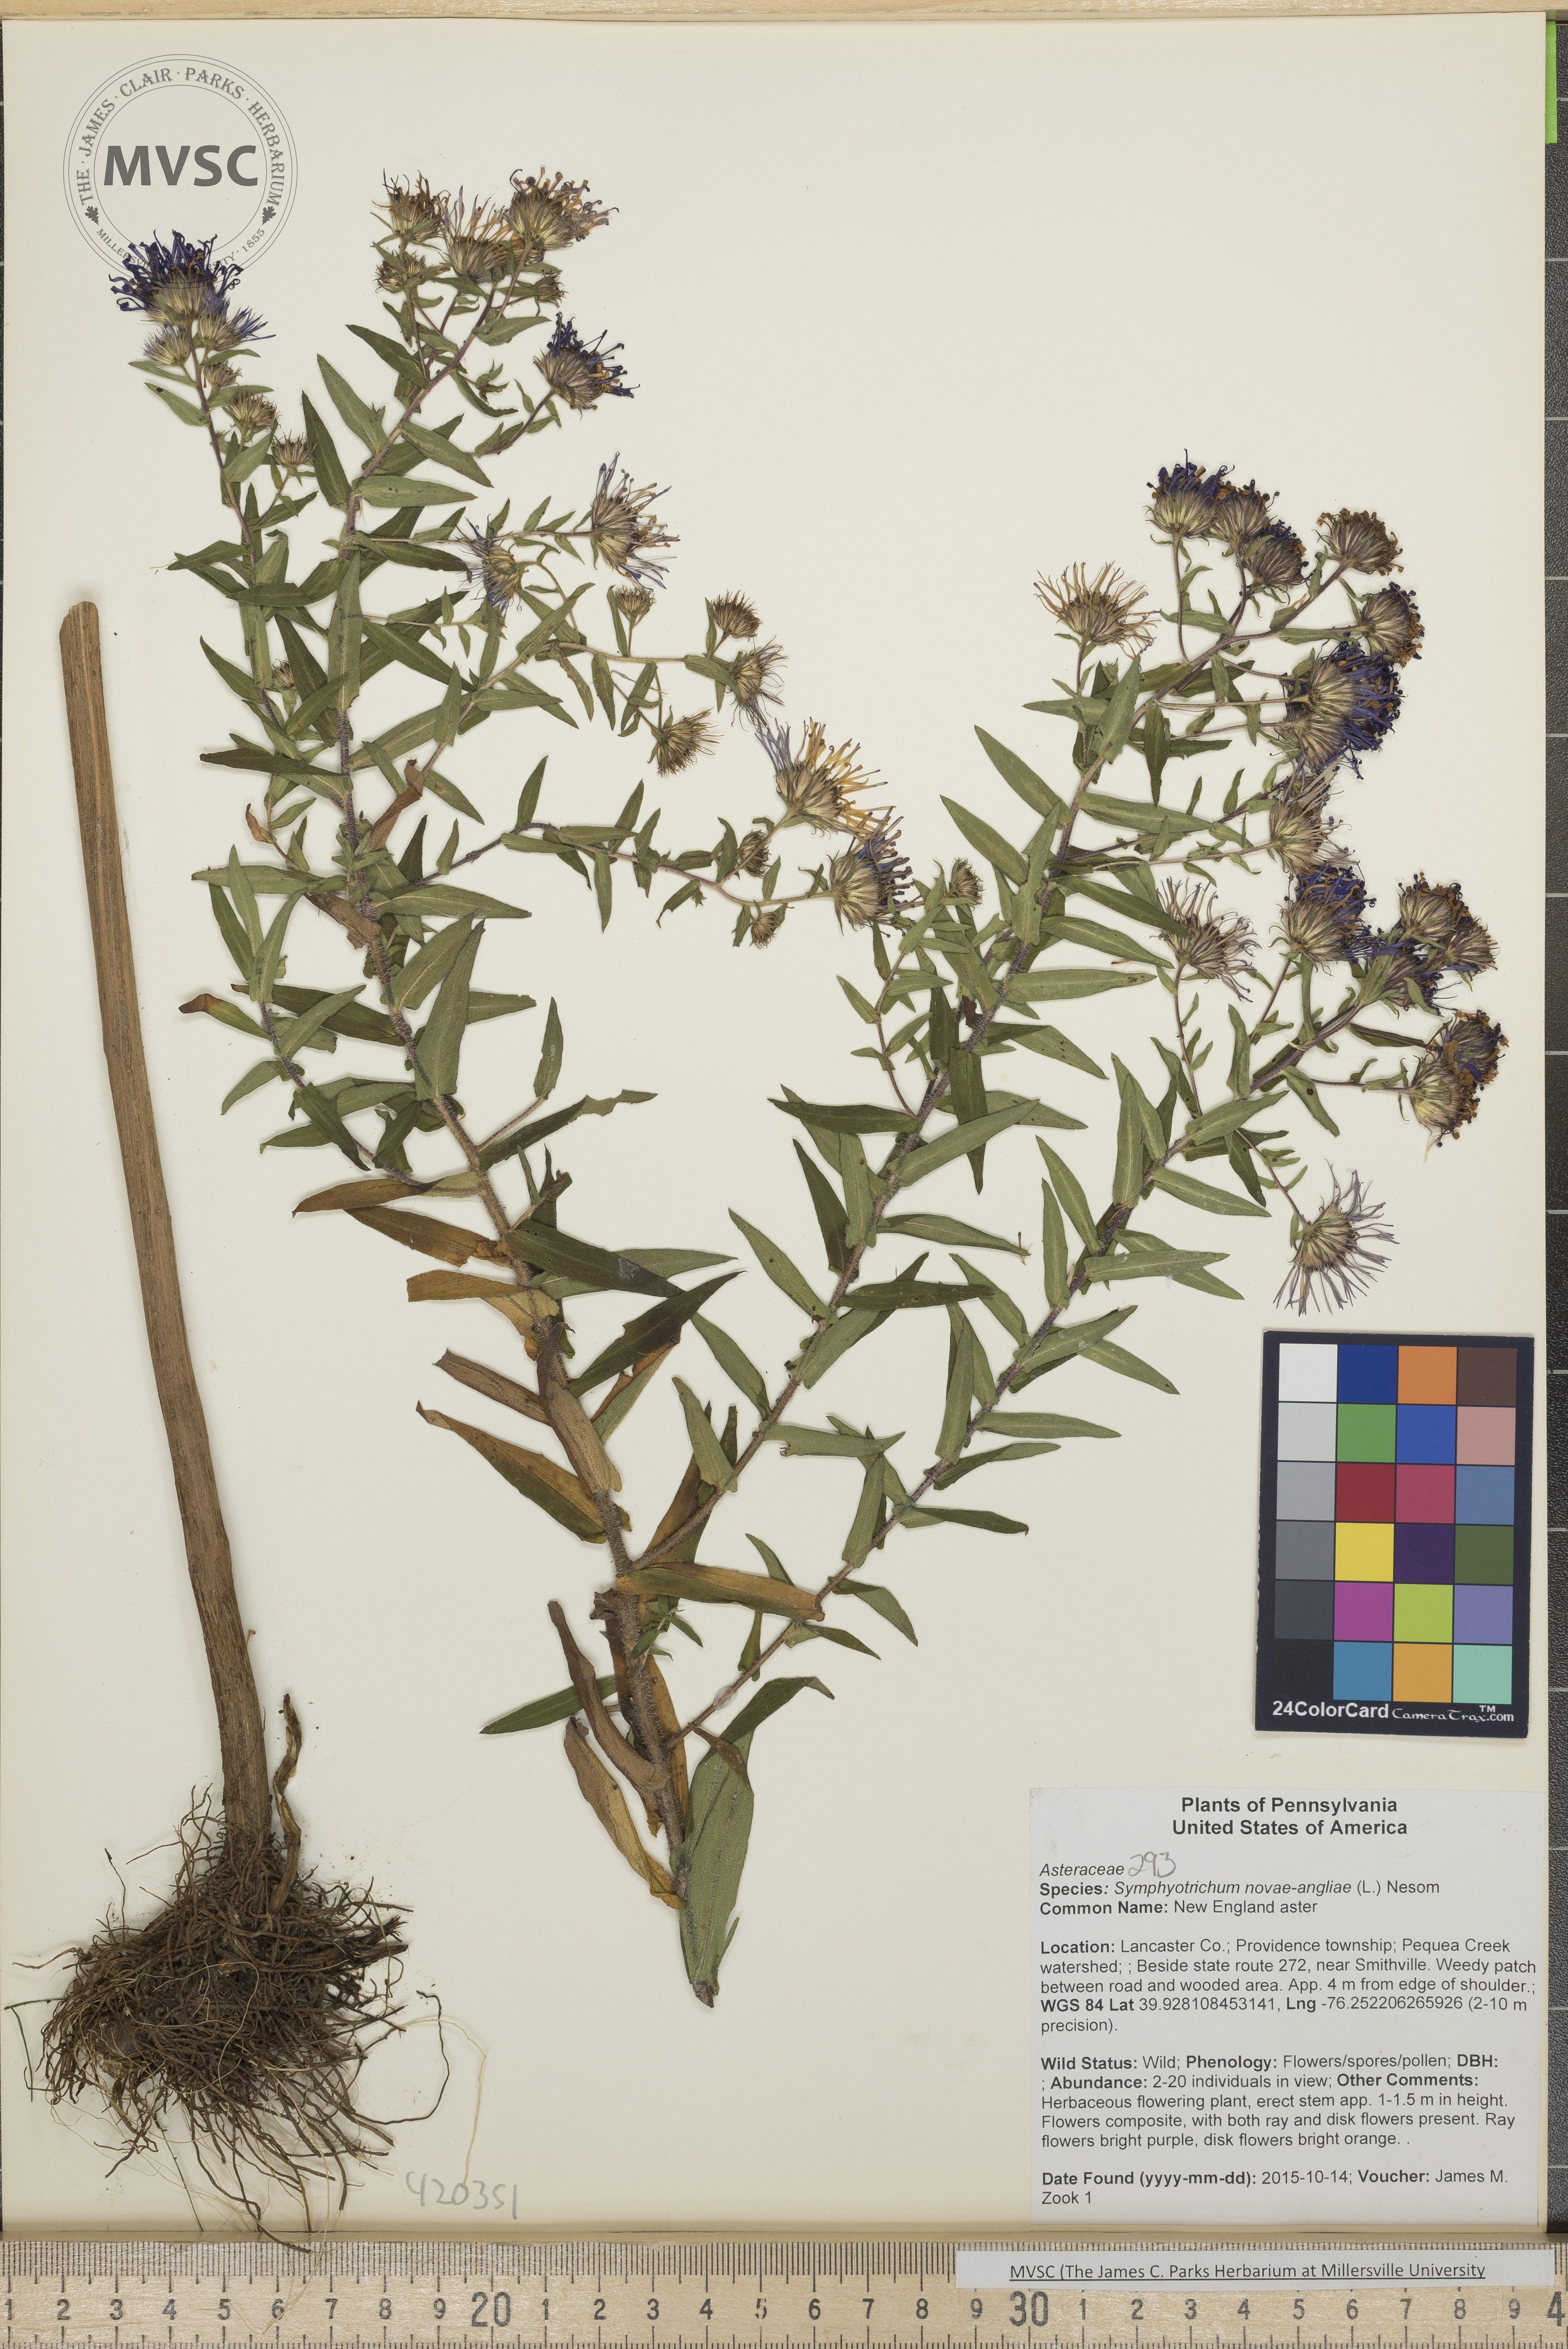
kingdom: Plantae
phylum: Tracheophyta
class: Magnoliopsida
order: Asterales
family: Asteraceae
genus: Symphyotrichum
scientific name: Symphyotrichum novae-angliae
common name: New England aster
